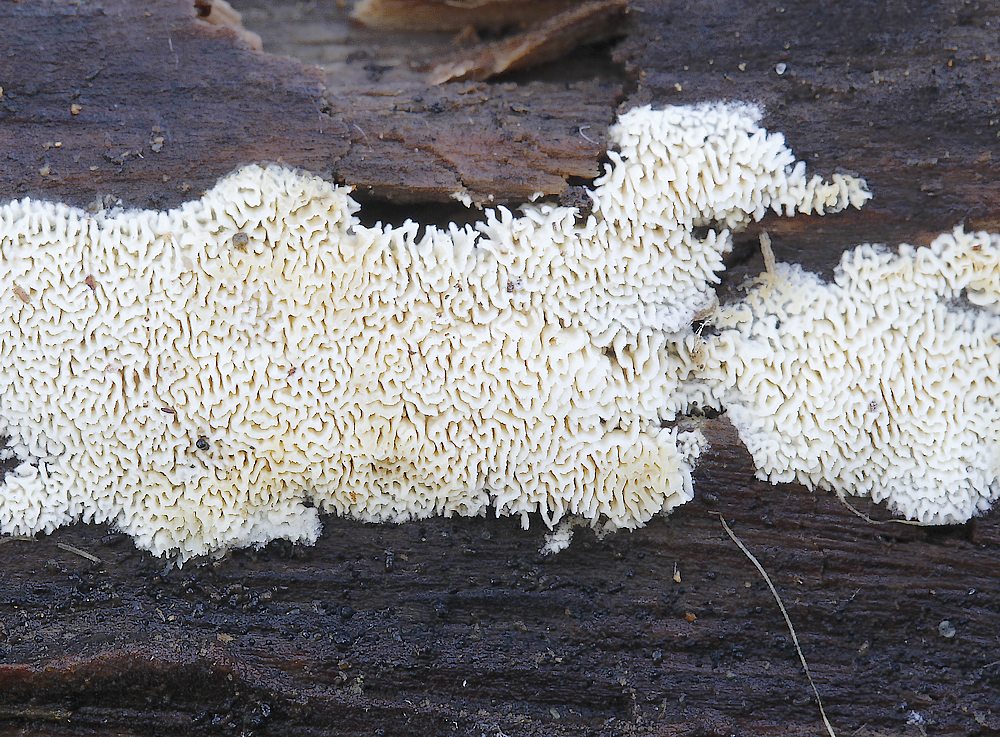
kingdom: Fungi
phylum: Basidiomycota
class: Agaricomycetes
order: Hymenochaetales
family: Schizoporaceae
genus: Xylodon
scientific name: Xylodon subtropicus
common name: labyrint-tandsvamp
